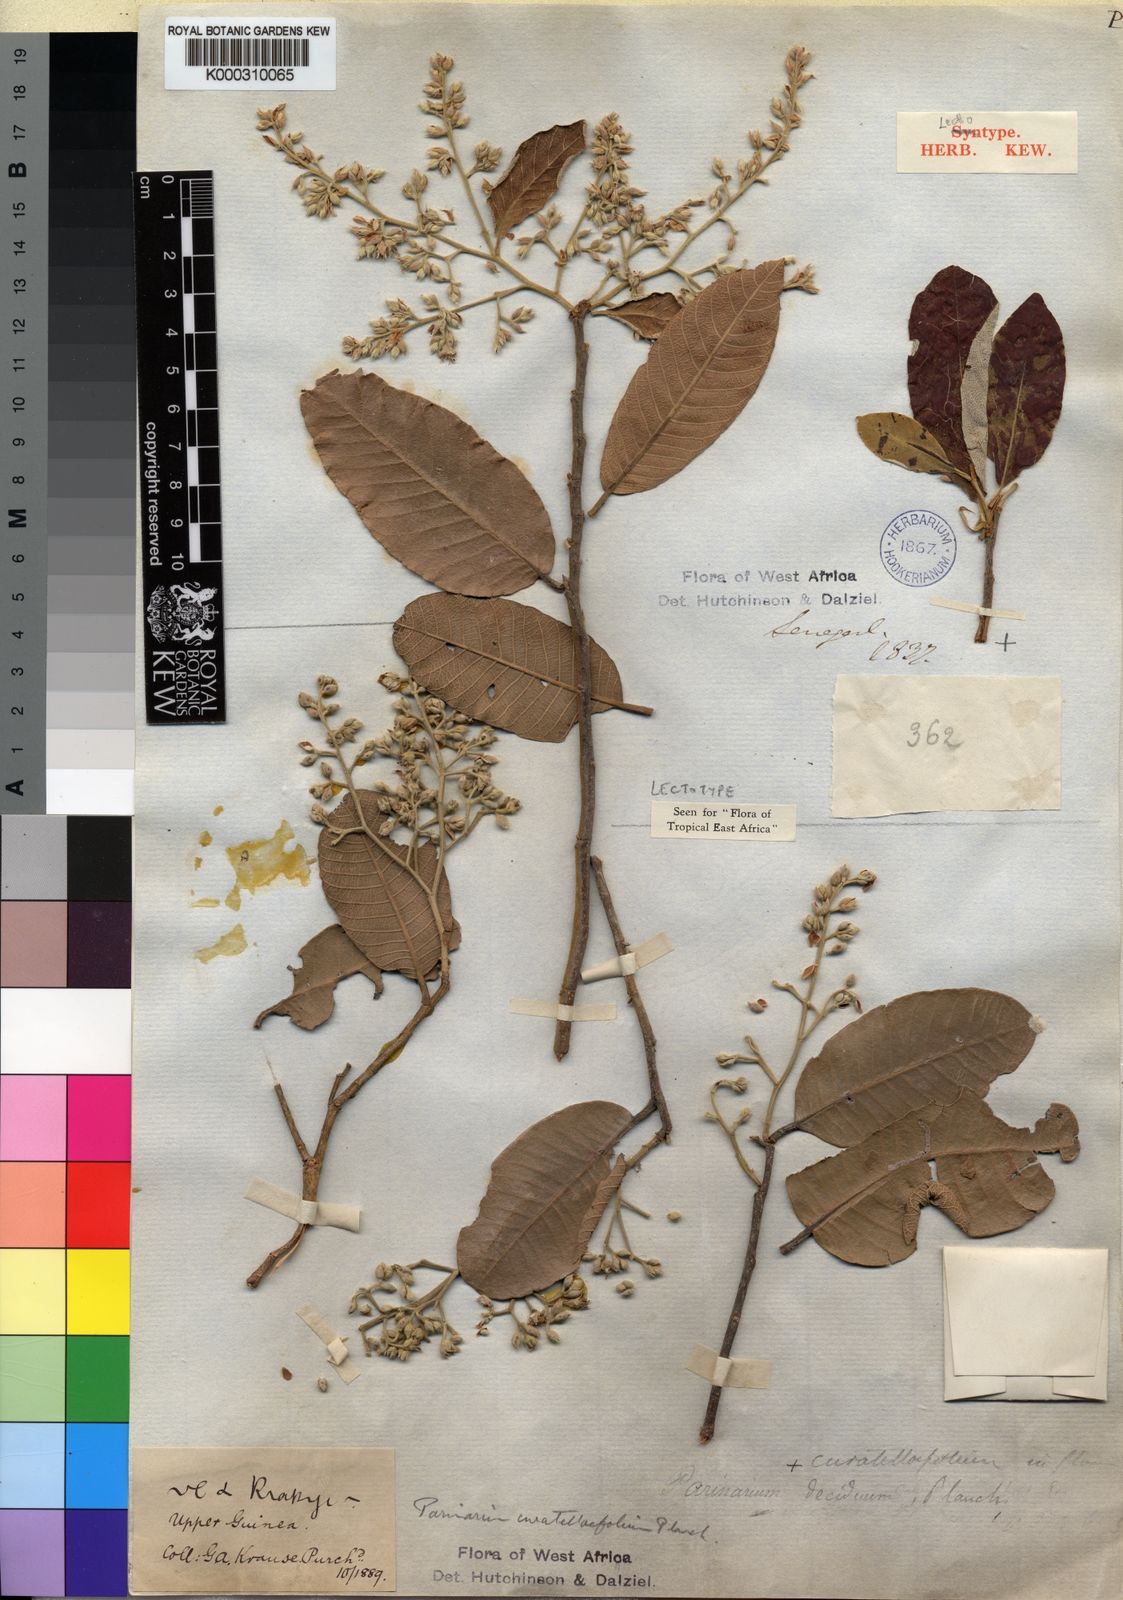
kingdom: Plantae
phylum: Tracheophyta
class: Magnoliopsida
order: Malpighiales
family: Chrysobalanaceae
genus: Parinari
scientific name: Parinari curatellifolia
